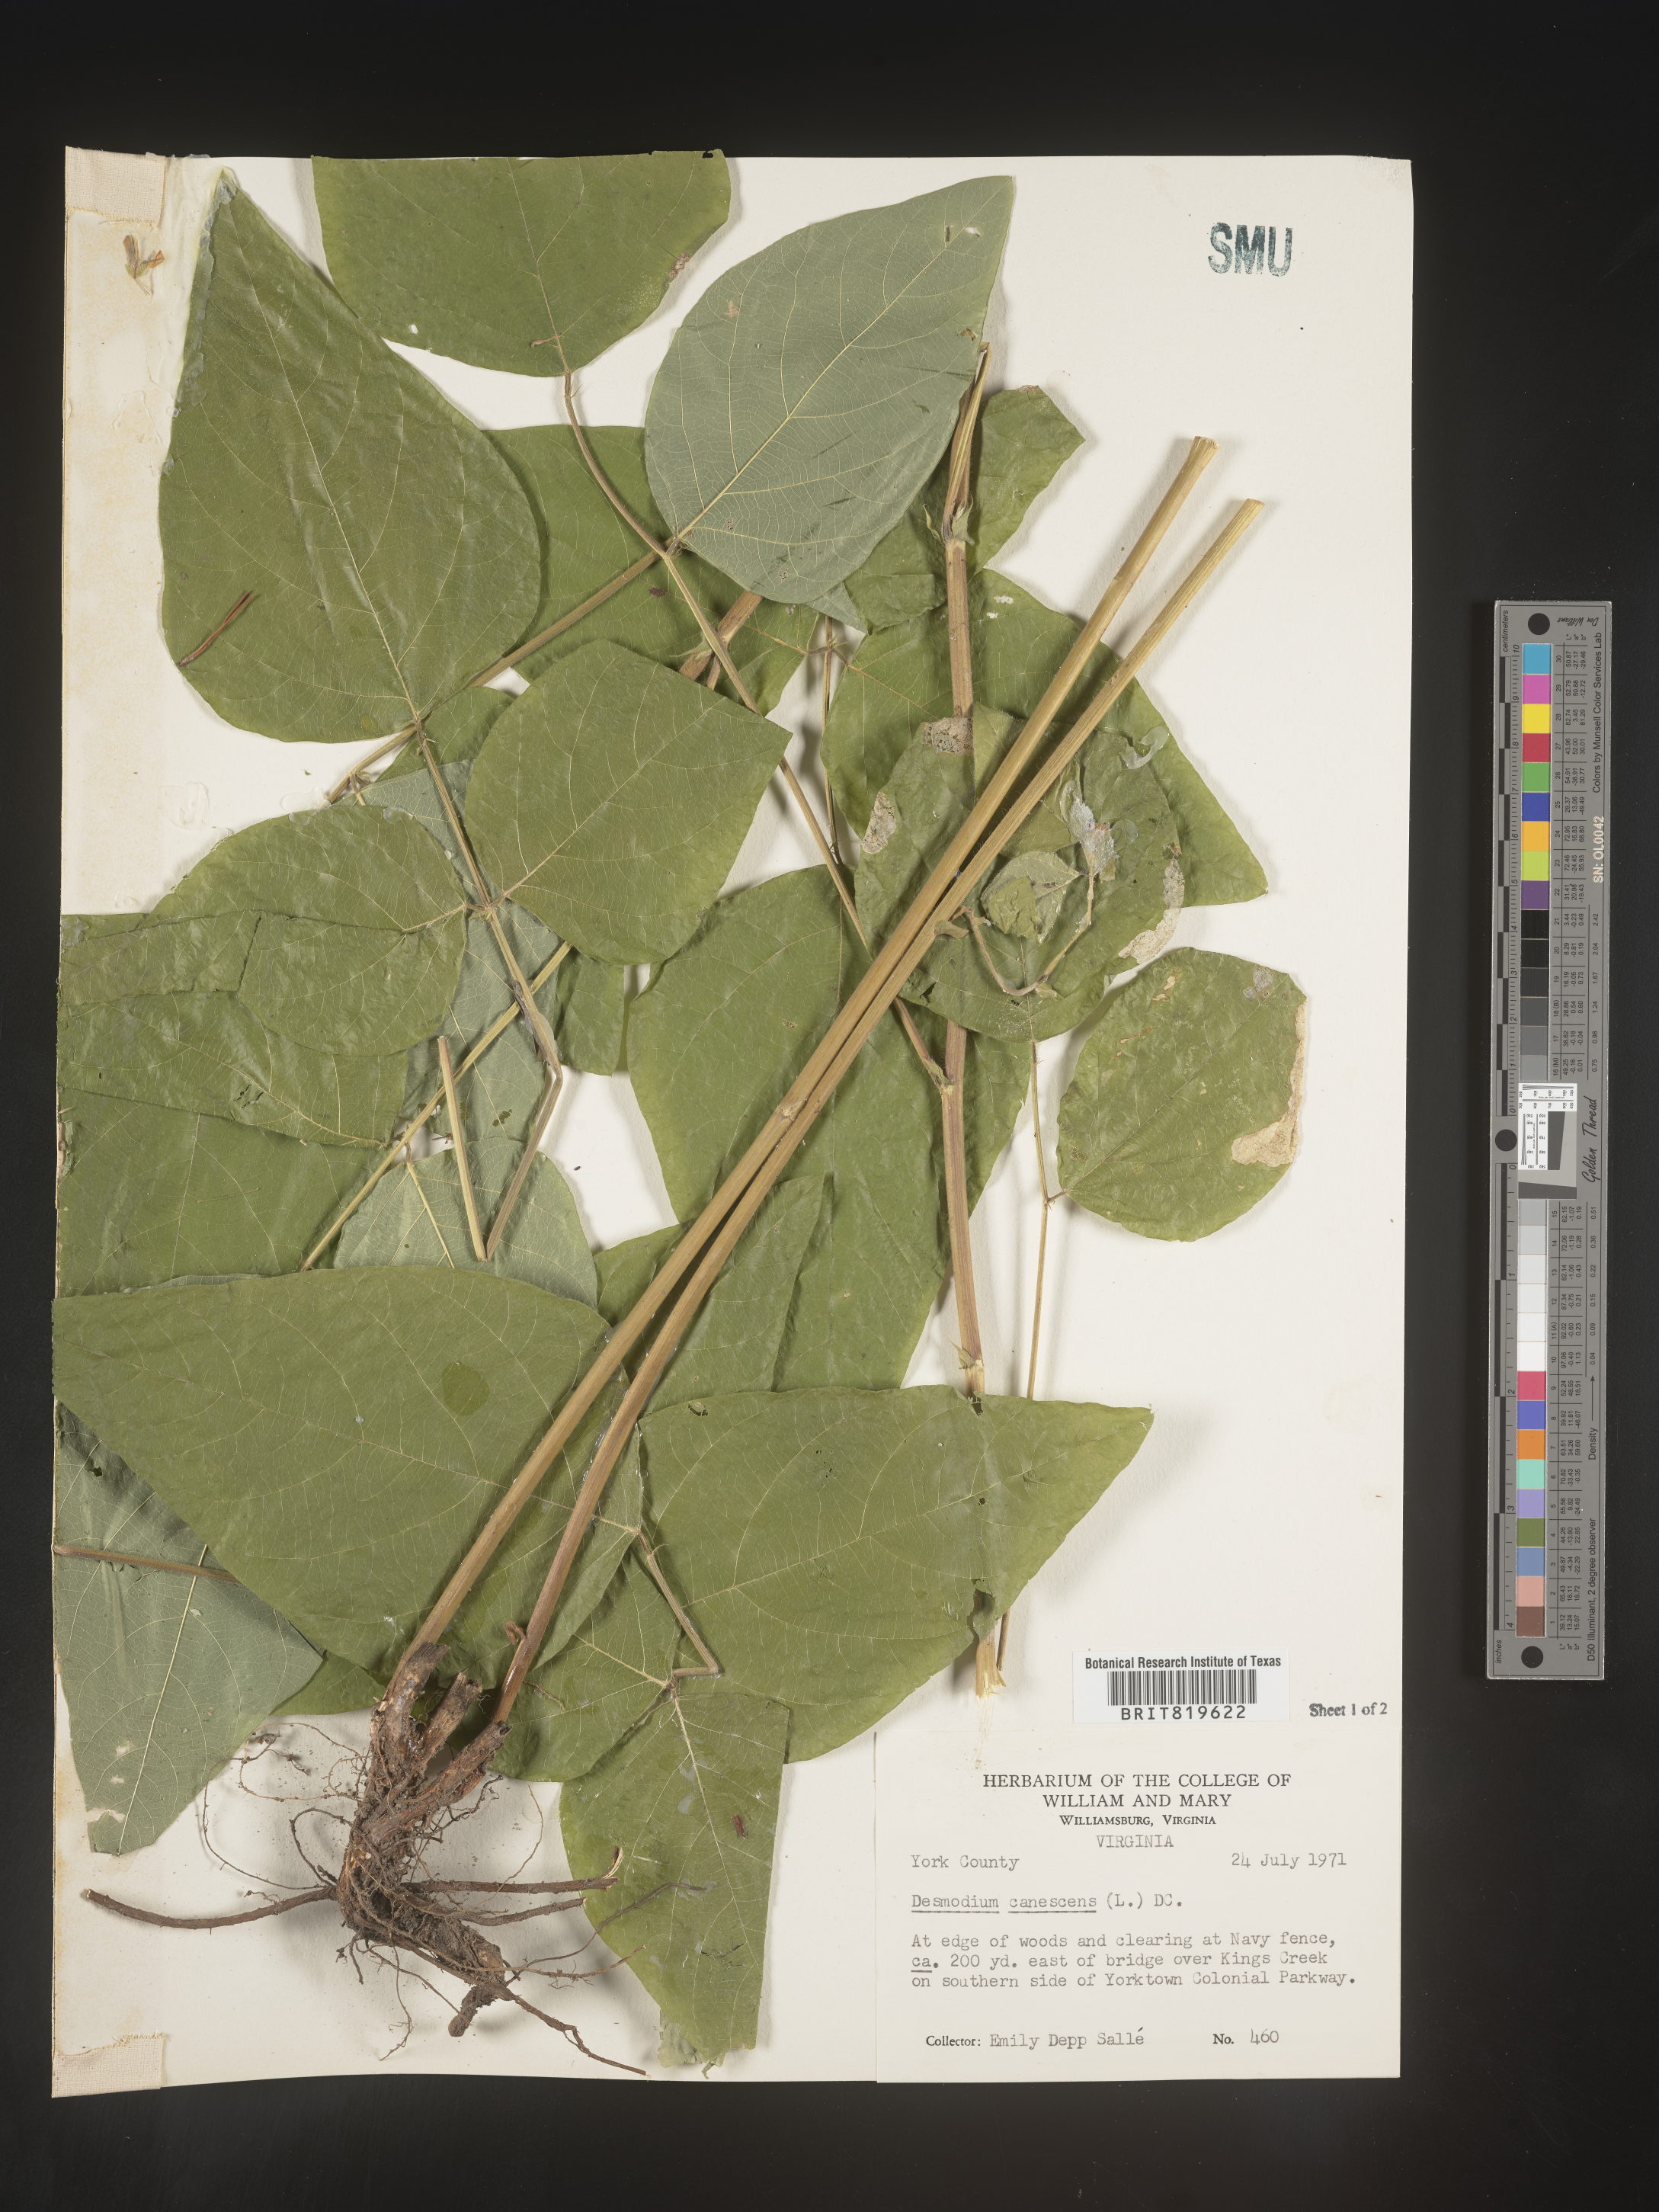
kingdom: Plantae
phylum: Tracheophyta
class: Magnoliopsida
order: Fabales
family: Fabaceae
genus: Desmodium
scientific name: Desmodium canescens
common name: Hoary tick-clover
